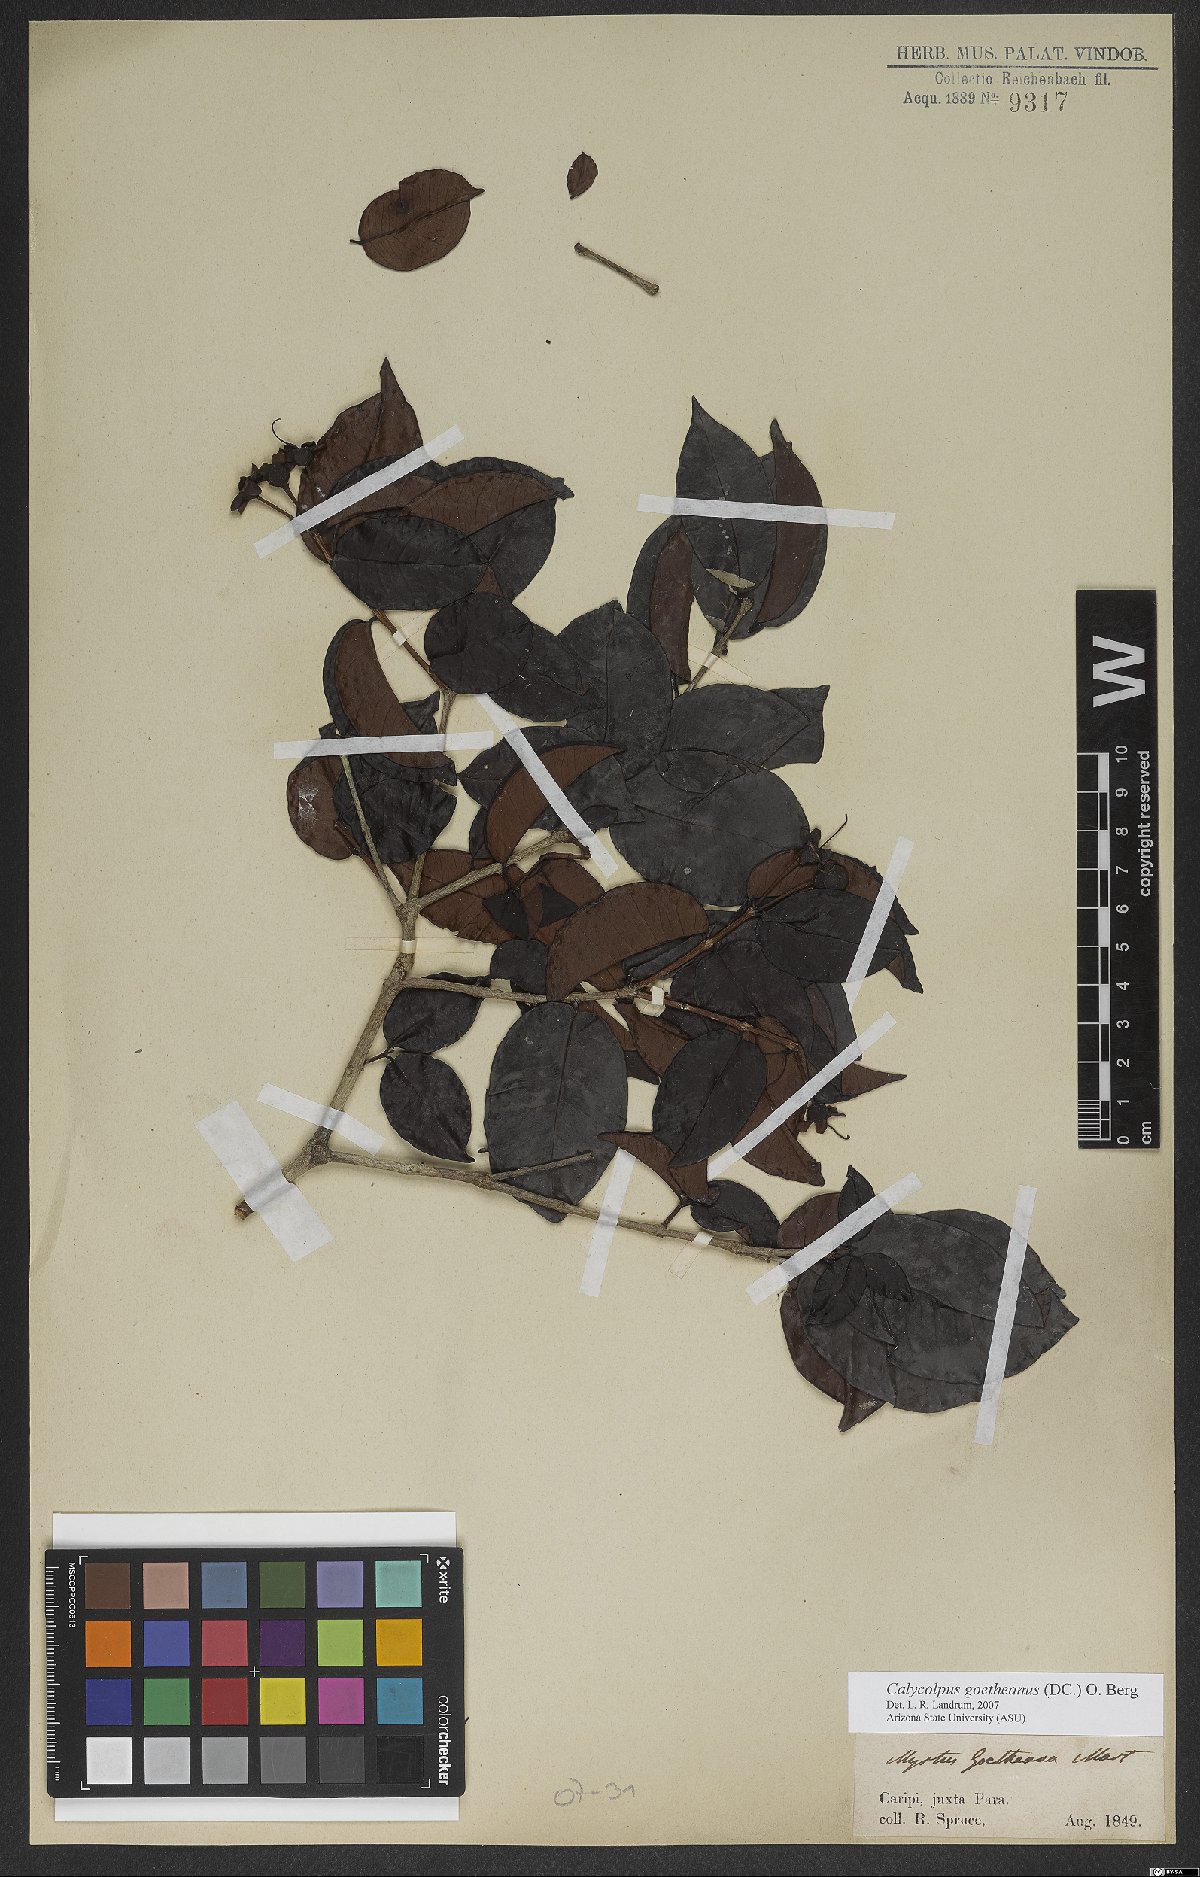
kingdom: Plantae
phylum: Tracheophyta
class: Magnoliopsida
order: Myrtales
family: Myrtaceae
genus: Calycolpus
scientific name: Calycolpus goetheanus
